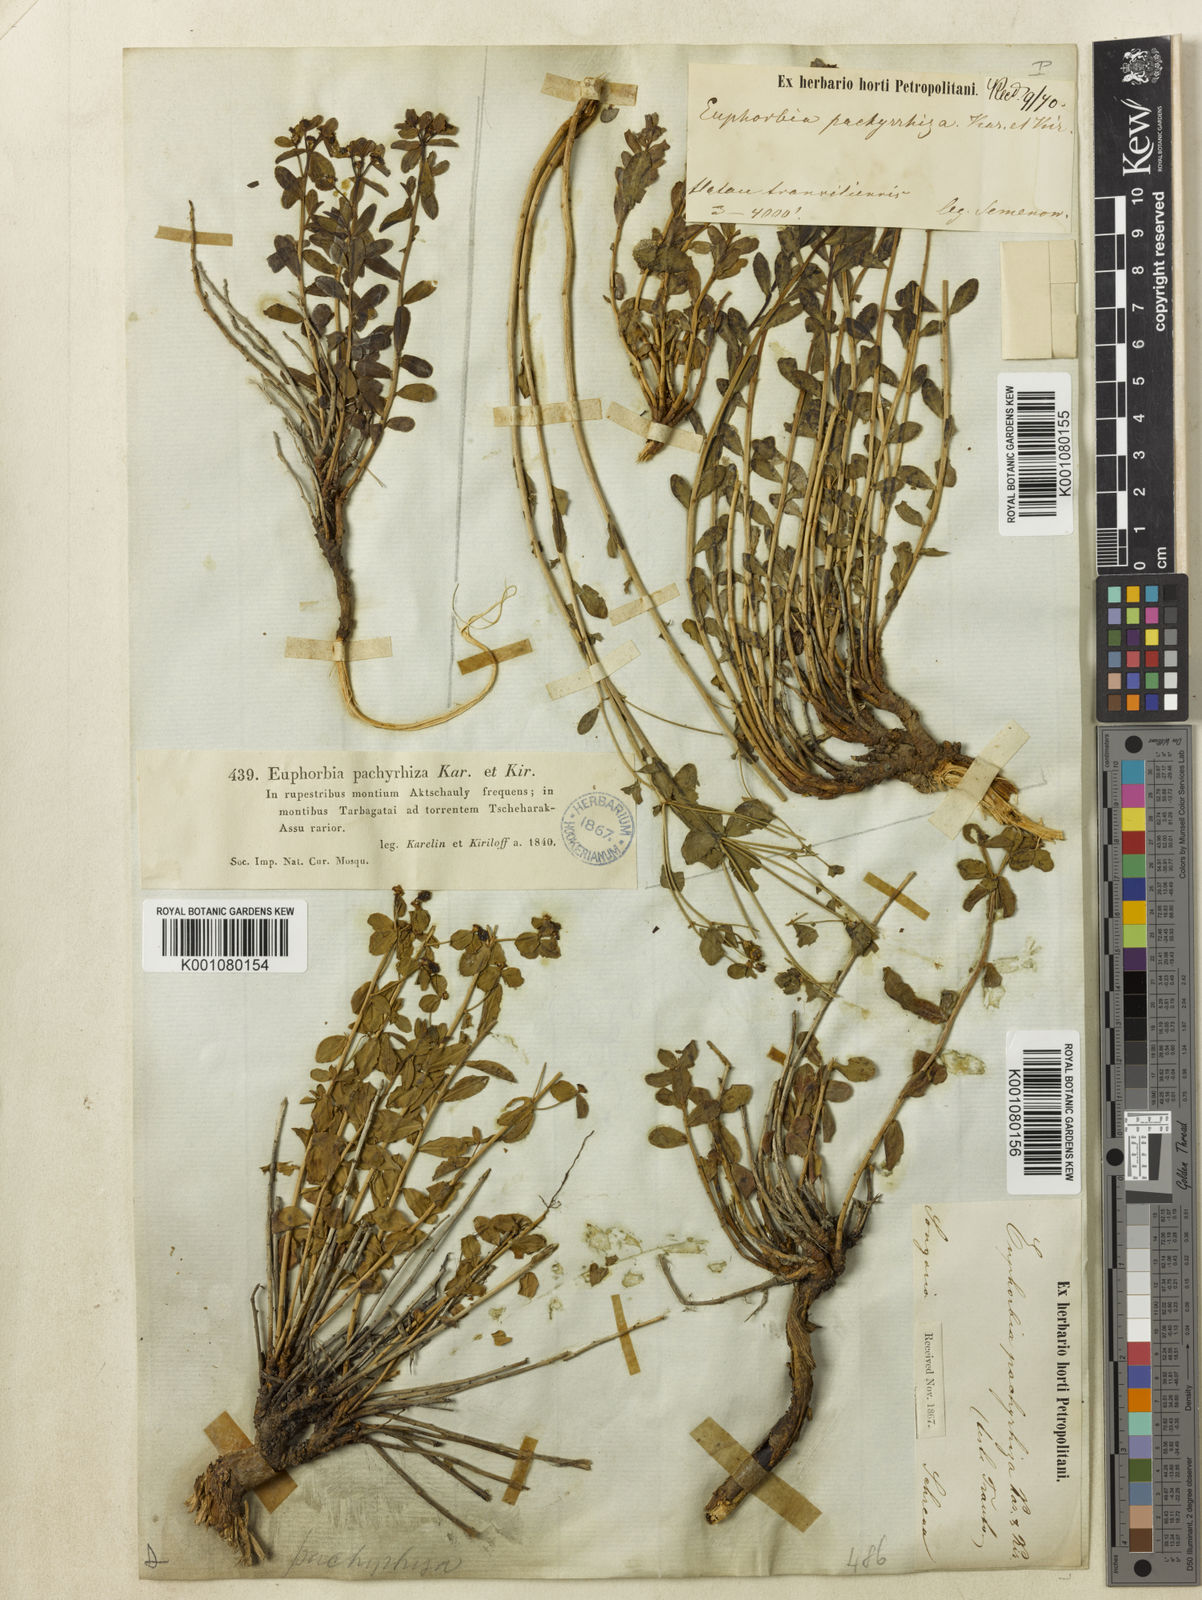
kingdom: Plantae
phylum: Tracheophyta
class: Magnoliopsida
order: Malpighiales
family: Euphorbiaceae
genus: Euphorbia
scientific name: Euphorbia pachyrrhiza
